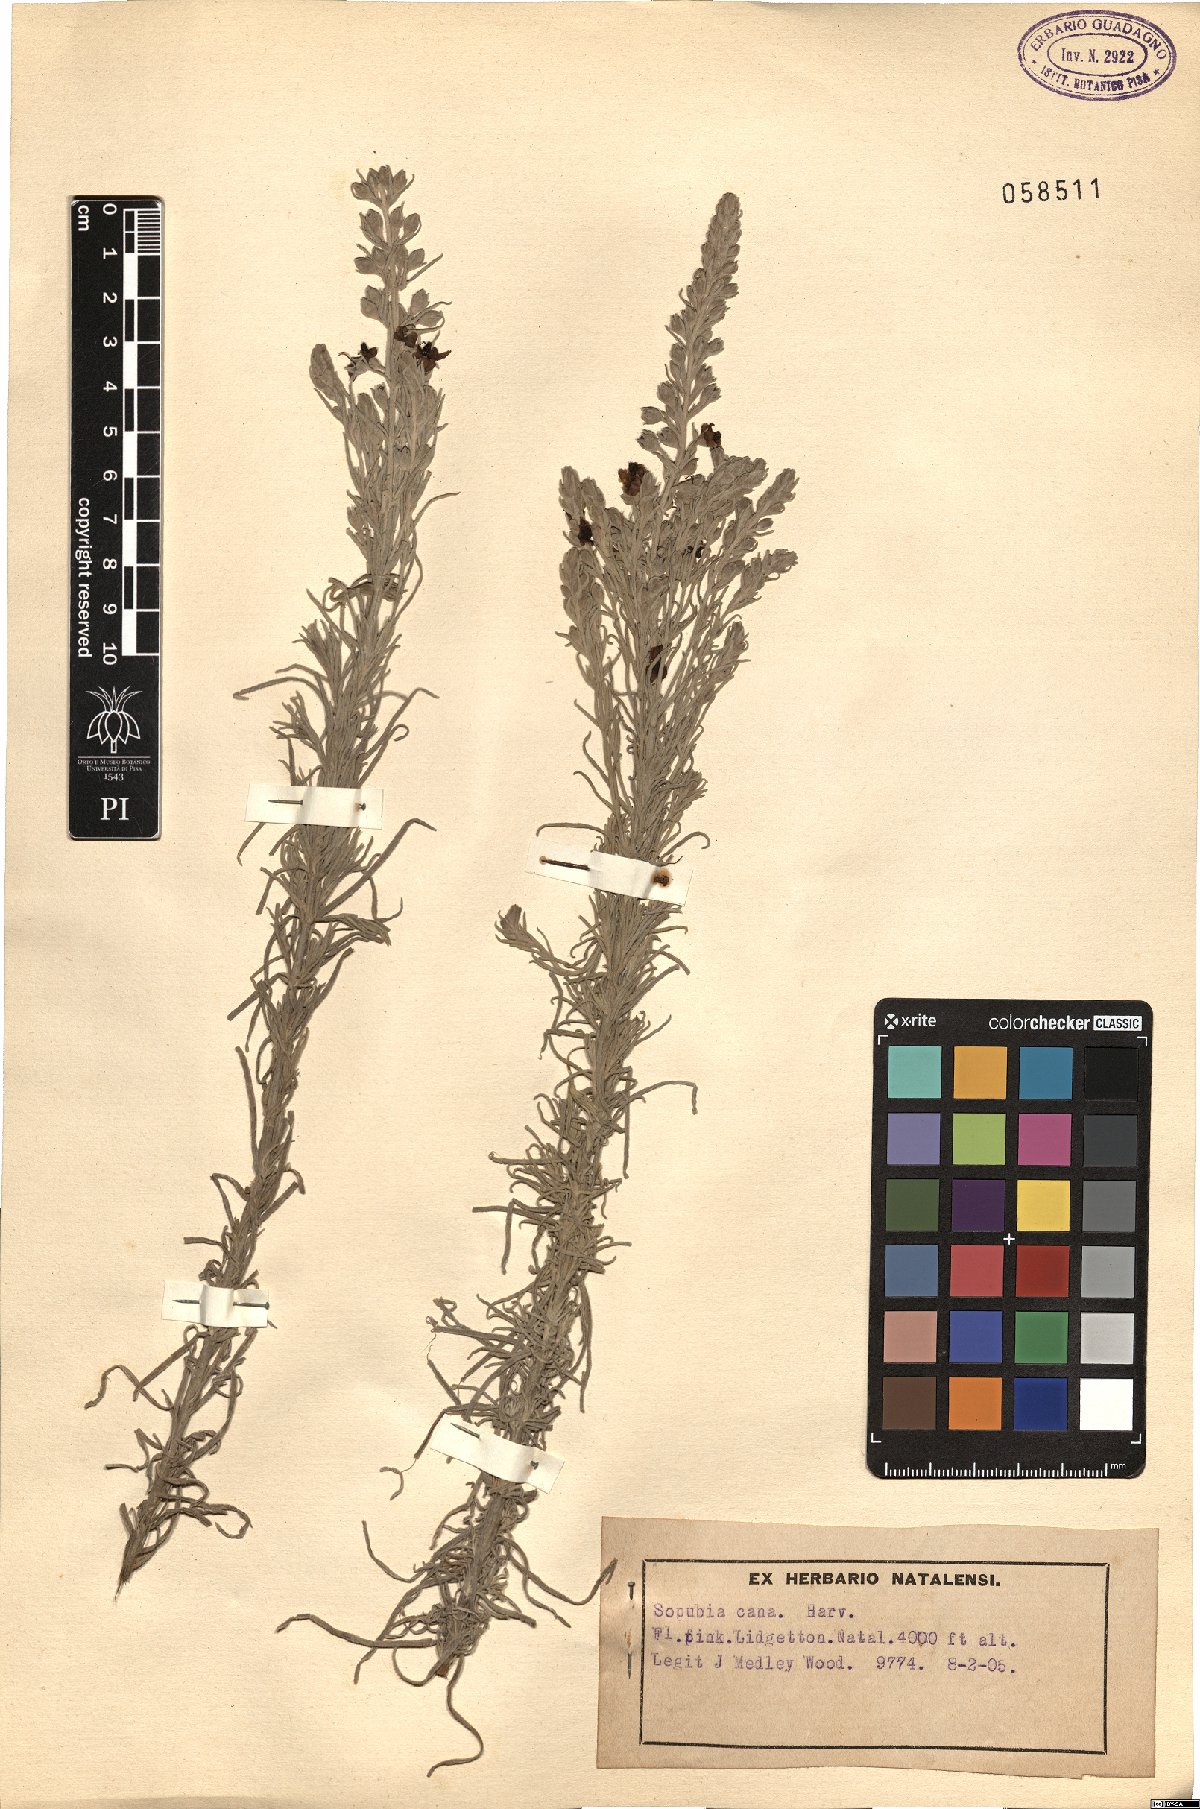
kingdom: Plantae
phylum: Tracheophyta
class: Magnoliopsida
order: Lamiales
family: Orobanchaceae
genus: Sopubia
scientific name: Sopubia cana
